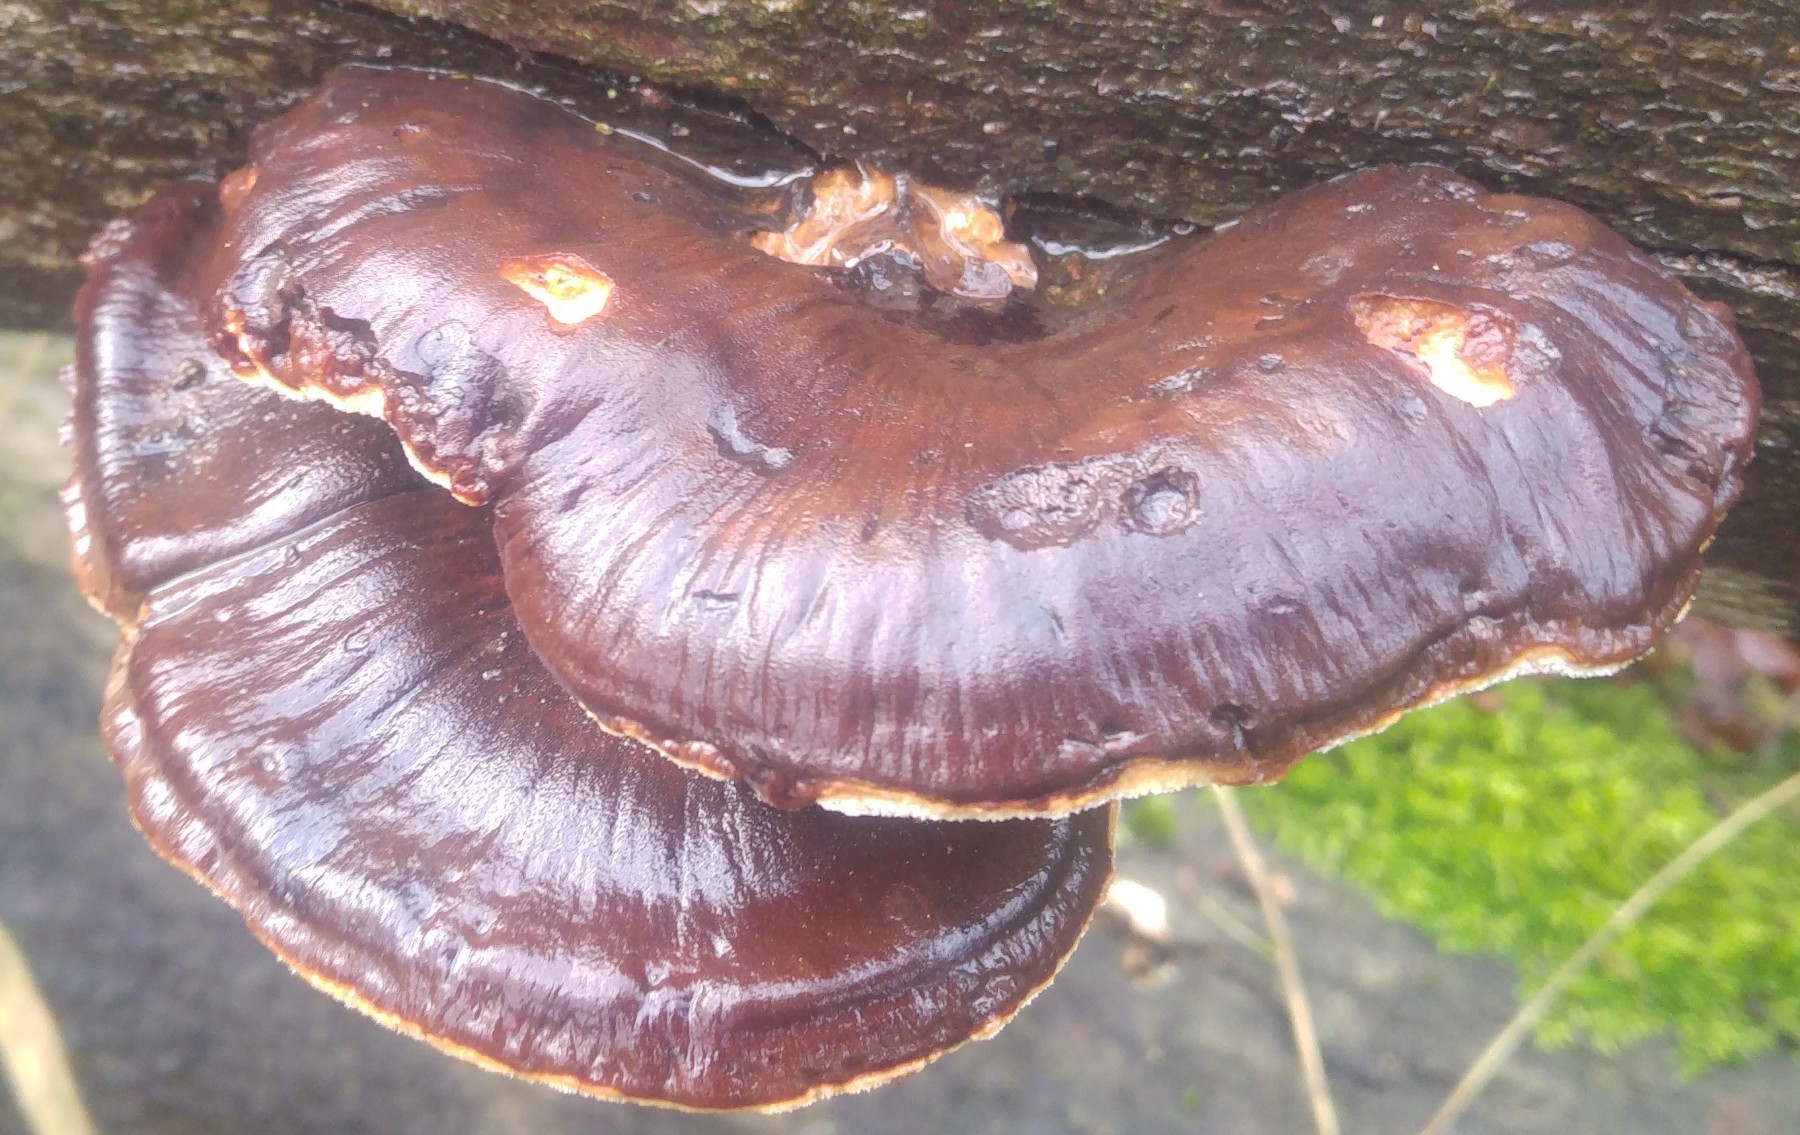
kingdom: Fungi
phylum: Basidiomycota
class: Agaricomycetes
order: Polyporales
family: Ischnodermataceae
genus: Ischnoderma
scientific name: Ischnoderma resinosum
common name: løv-tjæreporesvamp
